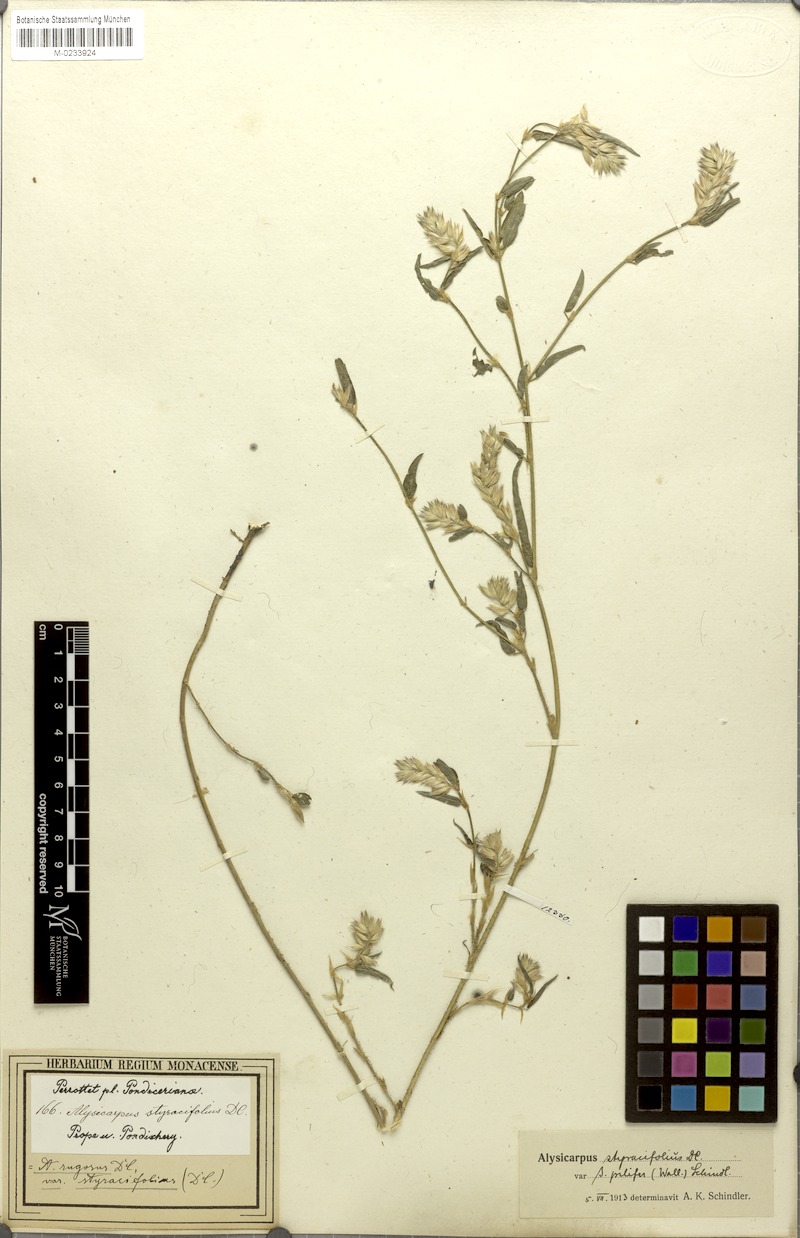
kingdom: Plantae
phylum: Tracheophyta
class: Magnoliopsida
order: Fabales
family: Fabaceae
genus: Alysicarpus
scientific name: Alysicarpus scariosus
